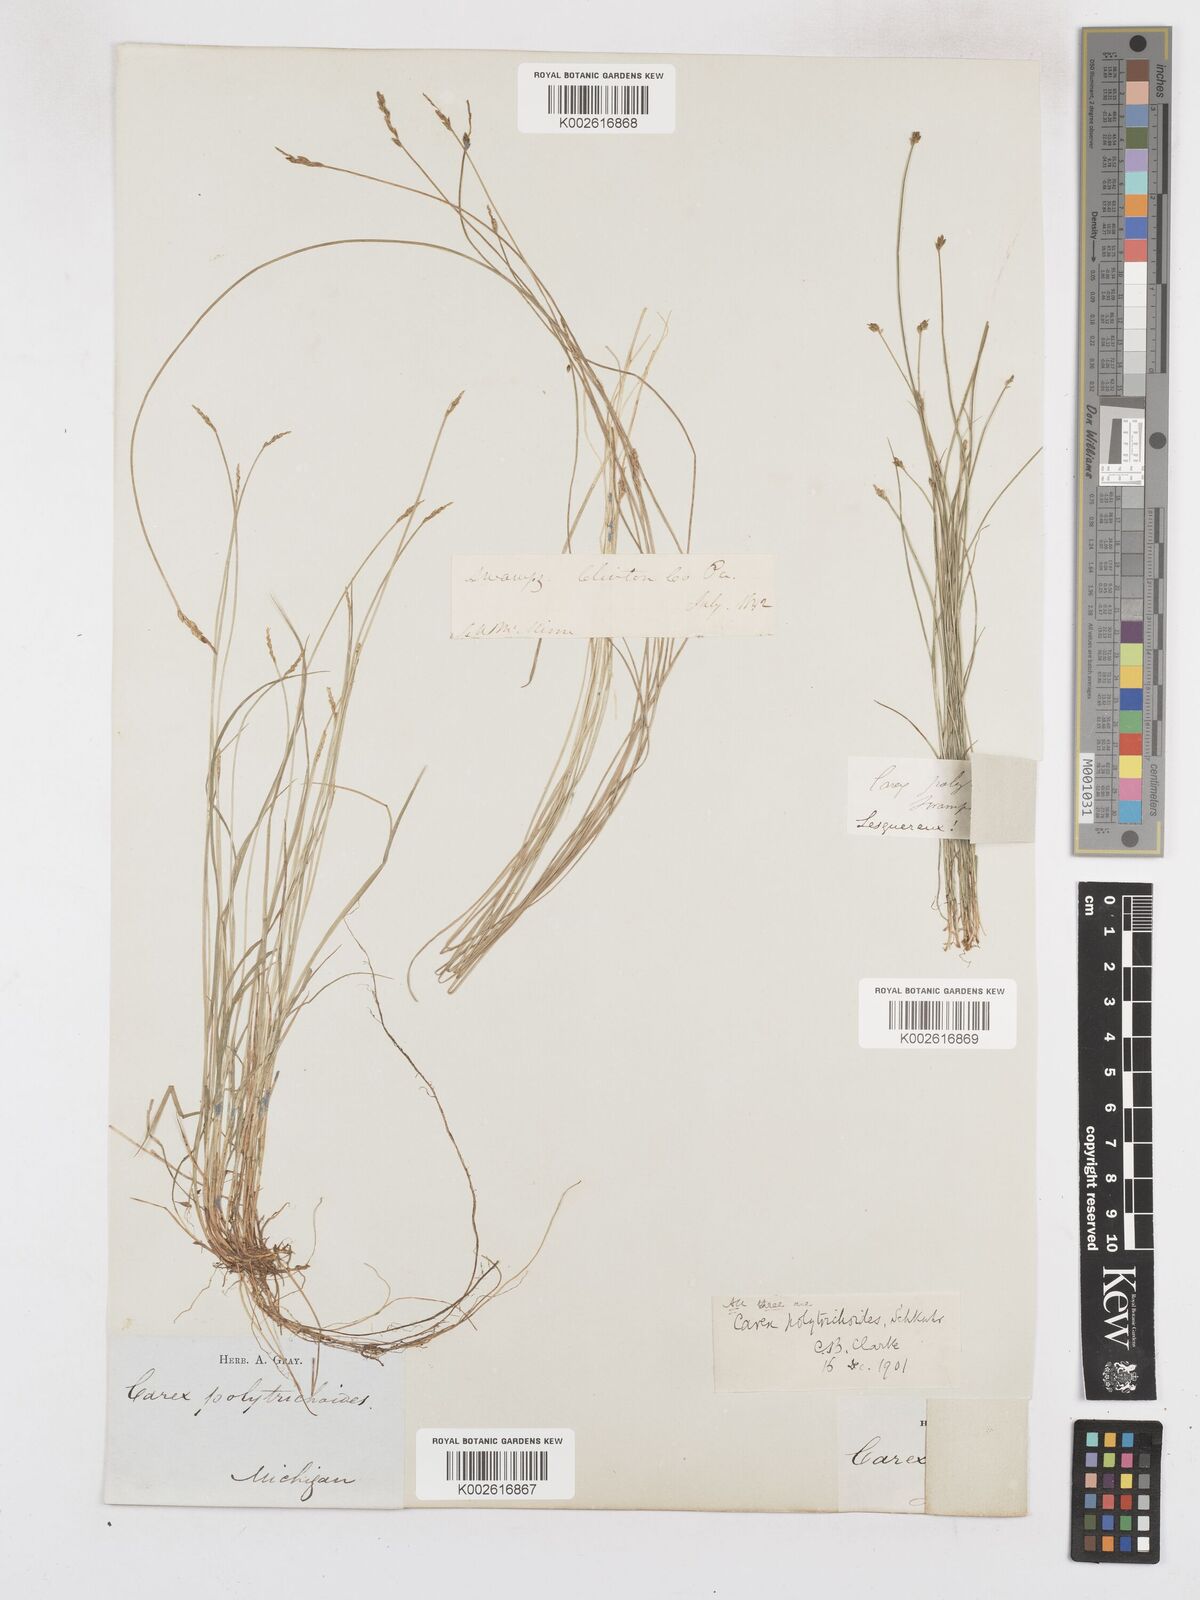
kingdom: Plantae
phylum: Tracheophyta
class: Liliopsida
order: Poales
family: Cyperaceae
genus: Carex
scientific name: Carex leptalea
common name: Bristly-stalked sedge
